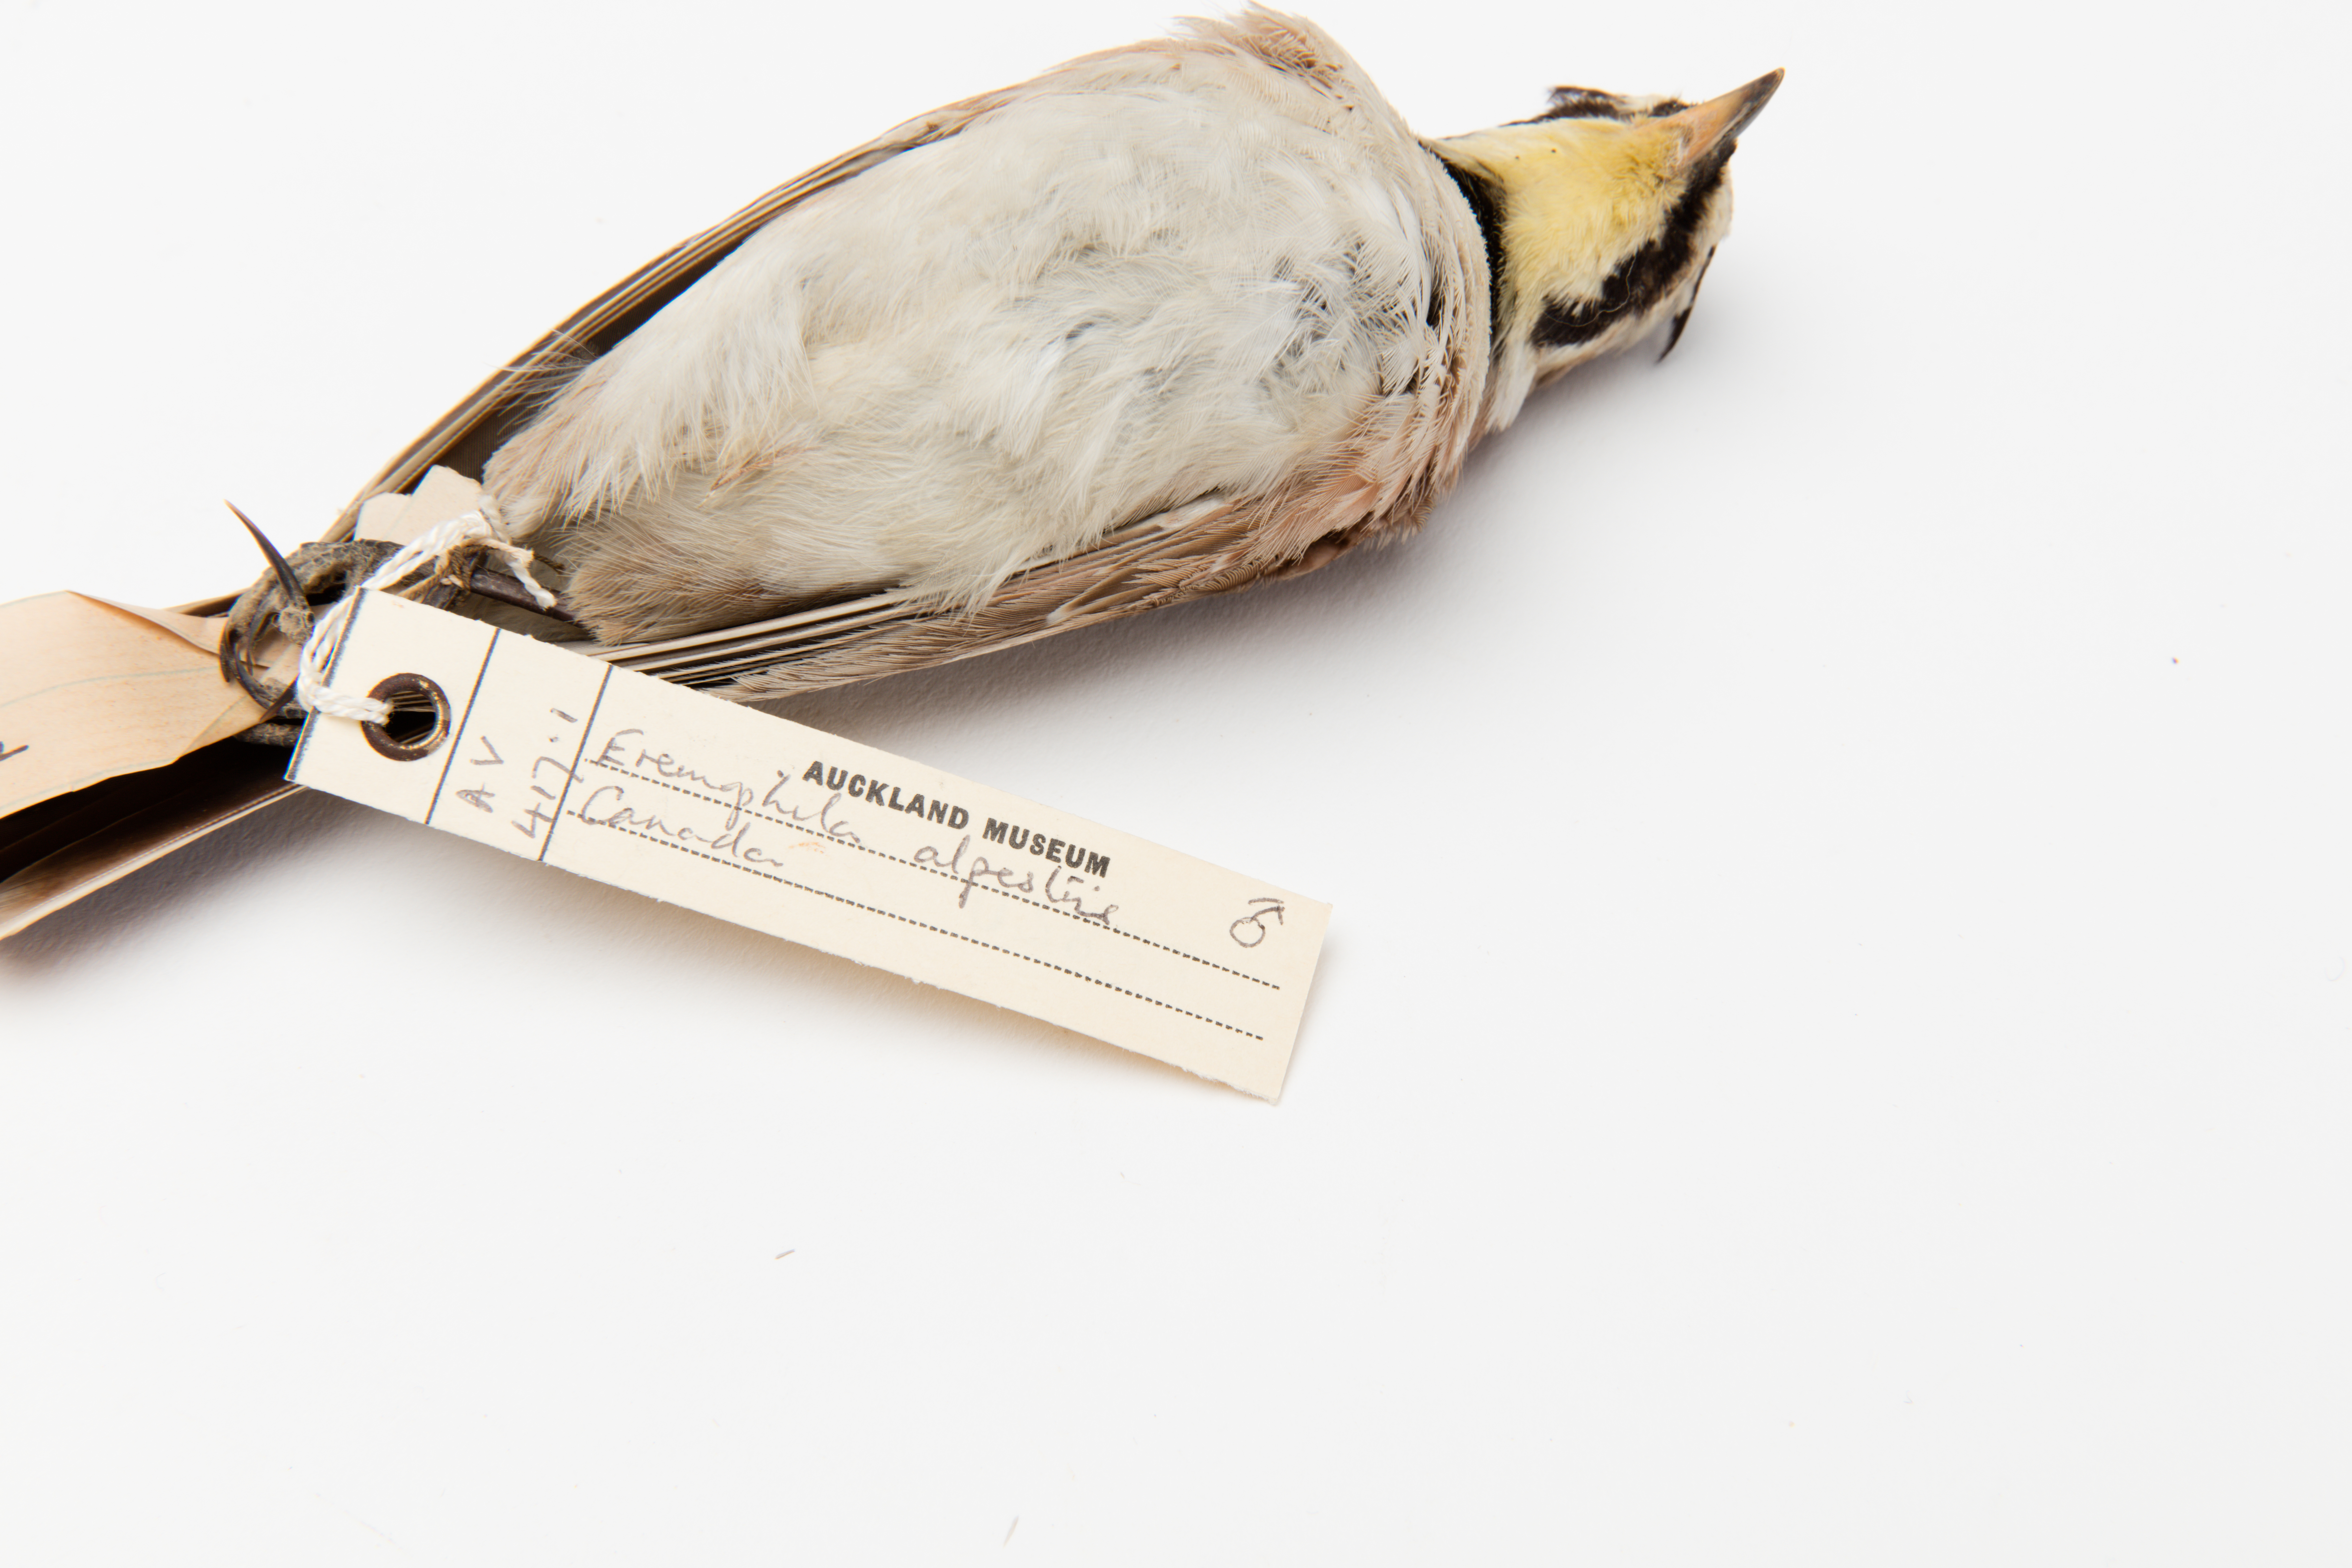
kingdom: Animalia
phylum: Chordata
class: Aves
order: Passeriformes
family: Alaudidae
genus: Eremophila
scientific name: Eremophila alpestris
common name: Horned lark
